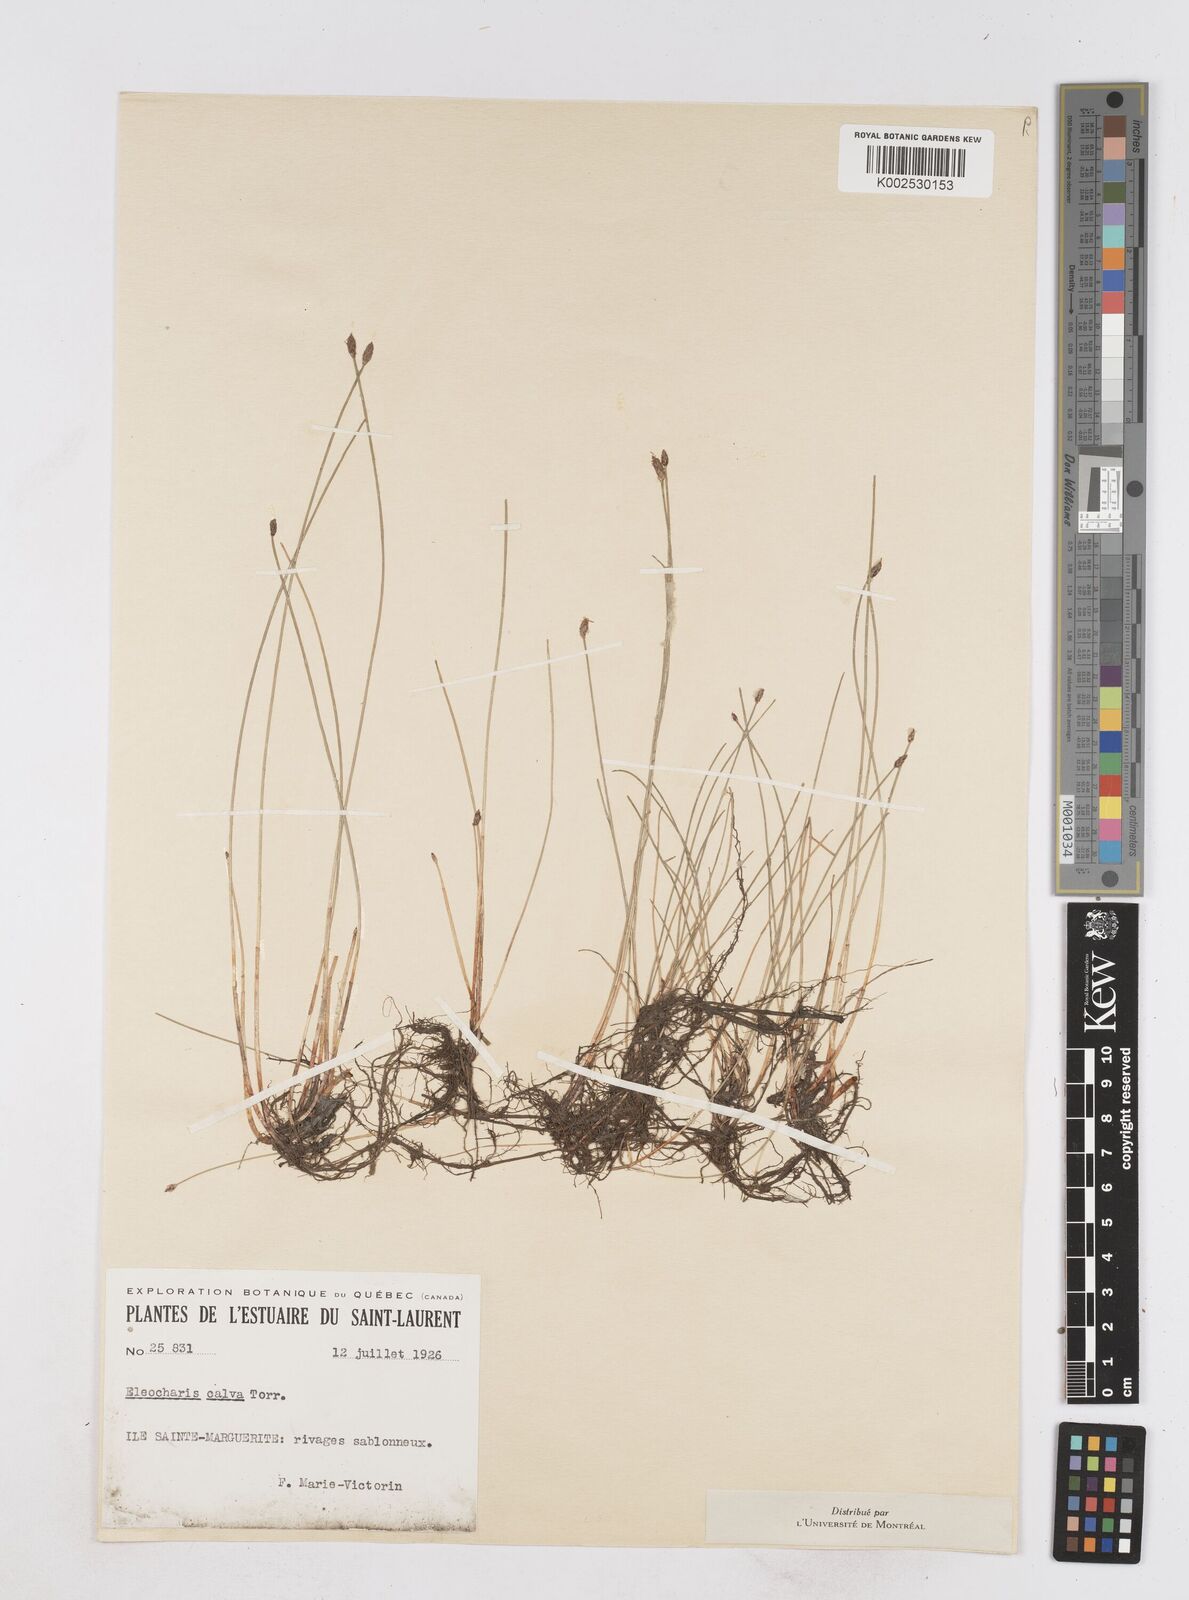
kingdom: Plantae
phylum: Tracheophyta
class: Liliopsida
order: Poales
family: Cyperaceae
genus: Eleocharis
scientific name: Eleocharis erythropoda
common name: Bald spikerush
